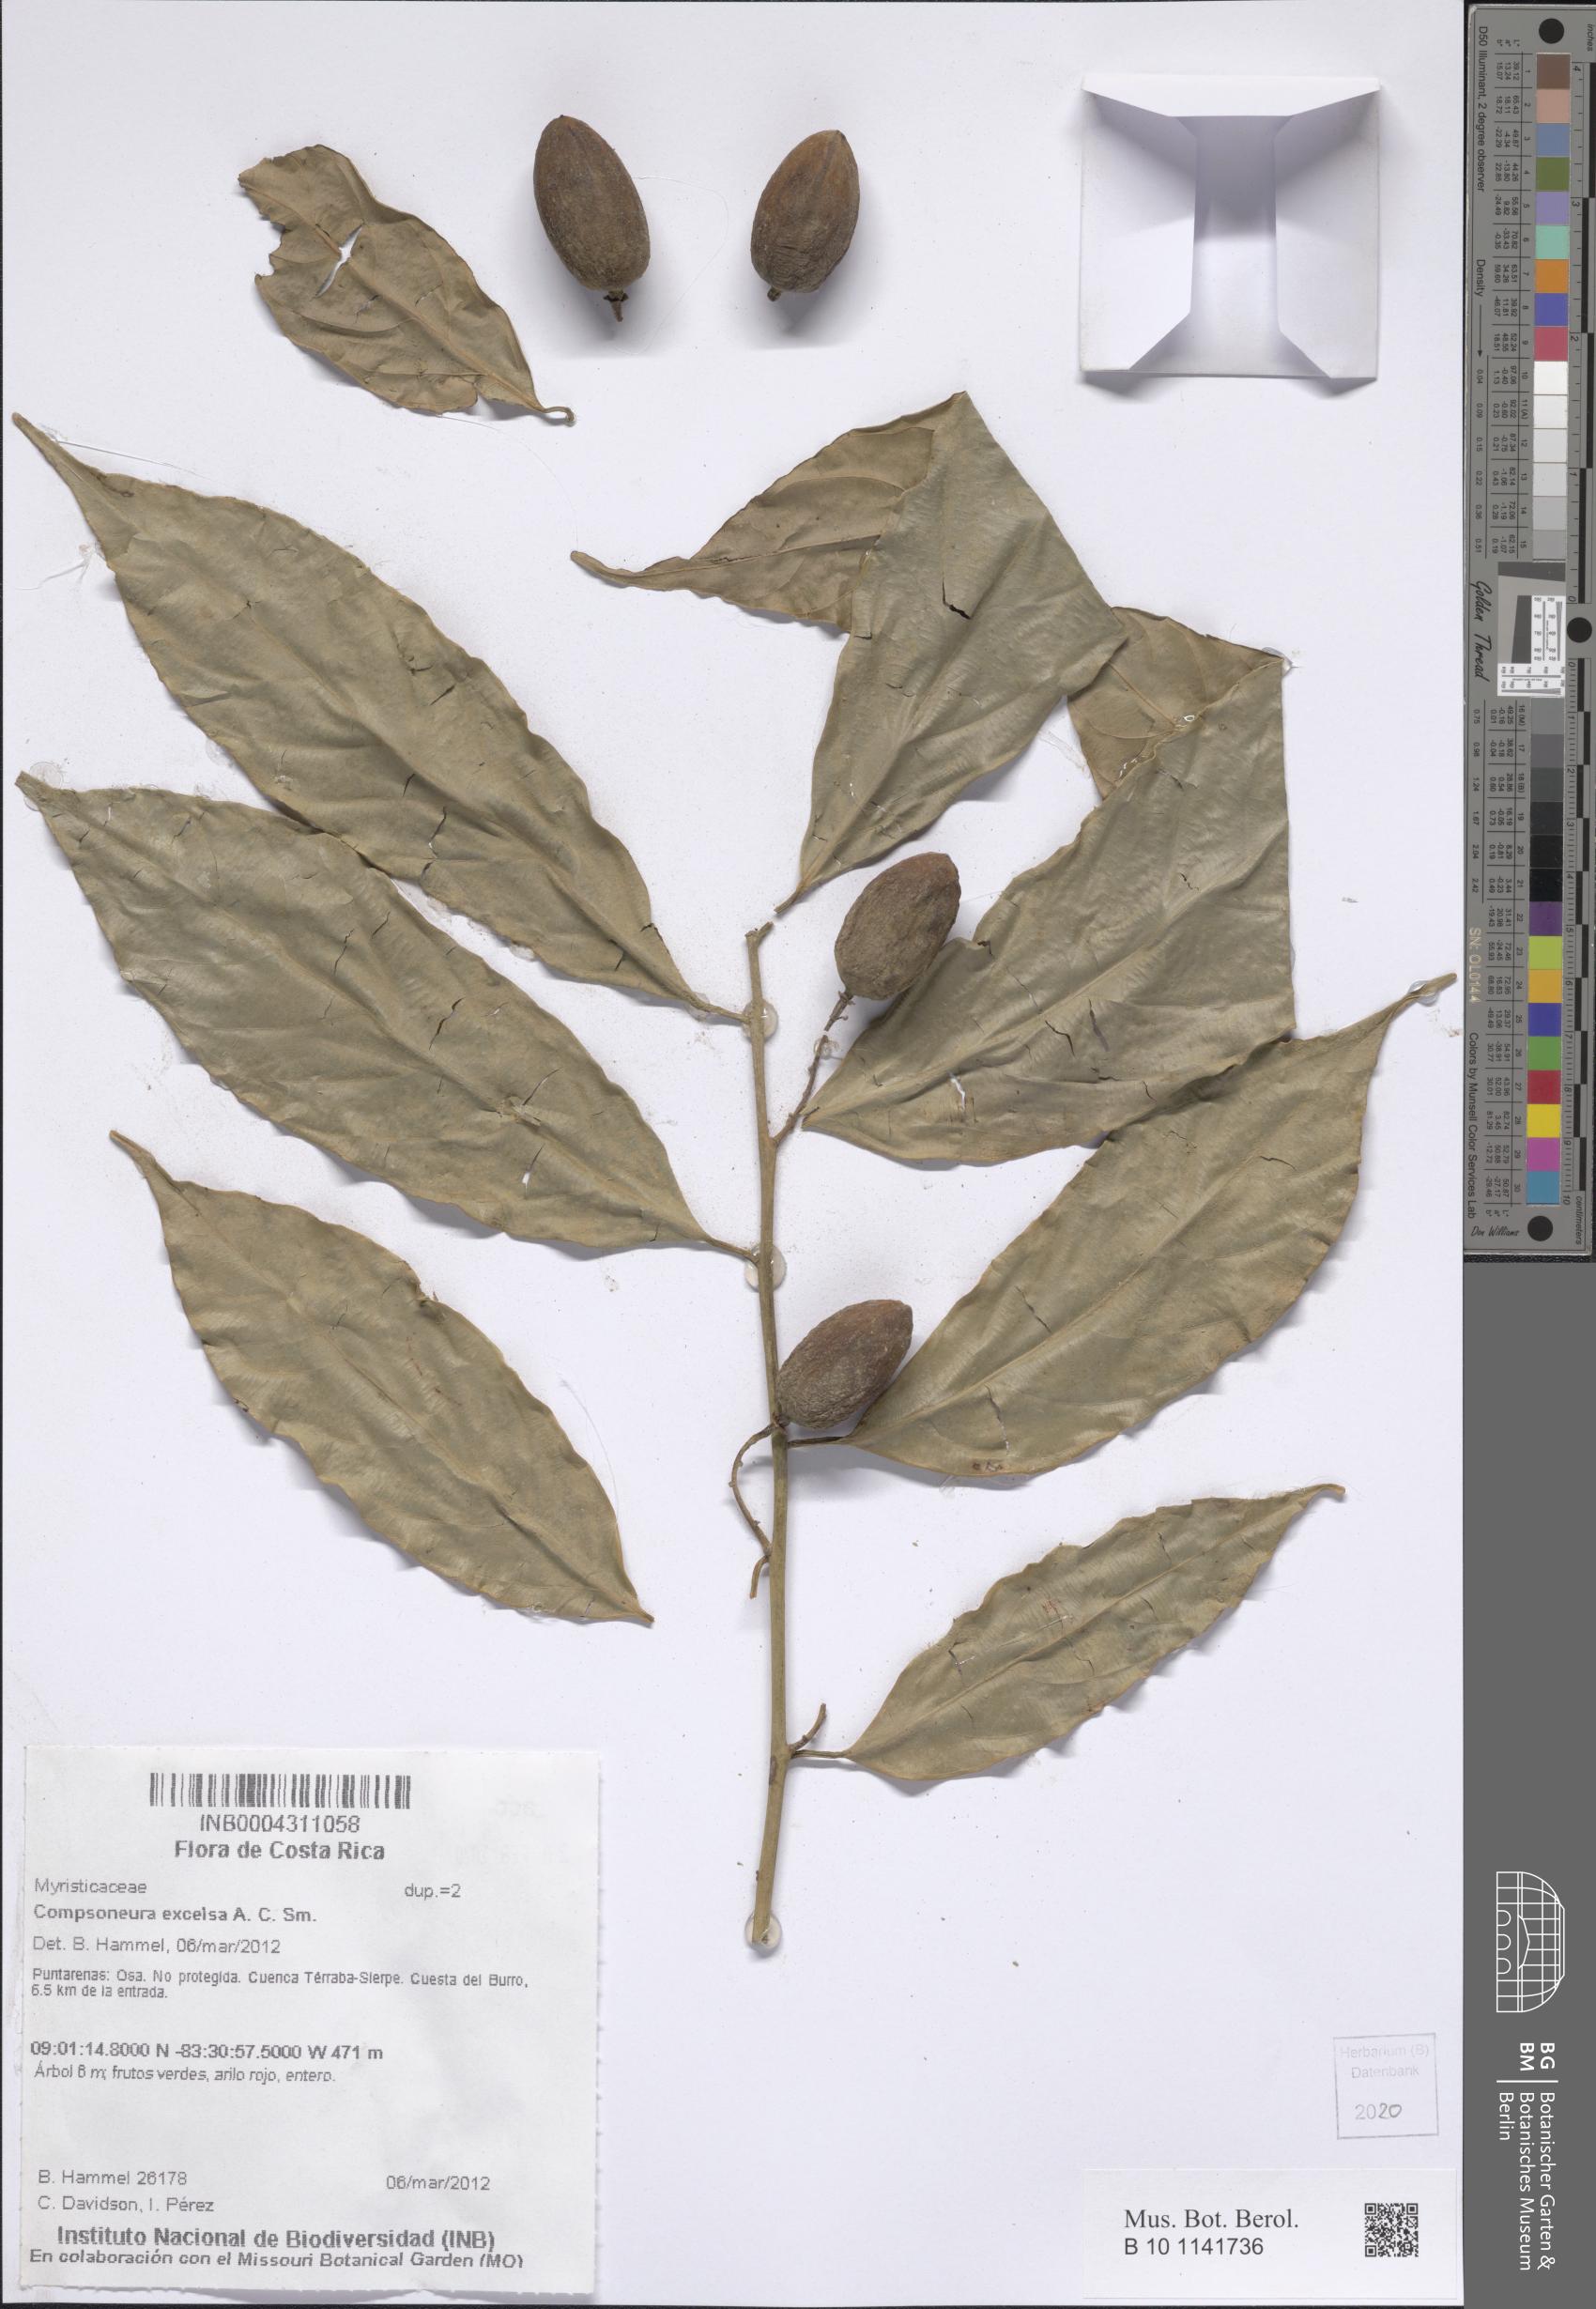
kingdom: Plantae
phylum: Tracheophyta
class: Magnoliopsida
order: Magnoliales
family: Myristicaceae
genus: Compsoneura
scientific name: Compsoneura excelsa
